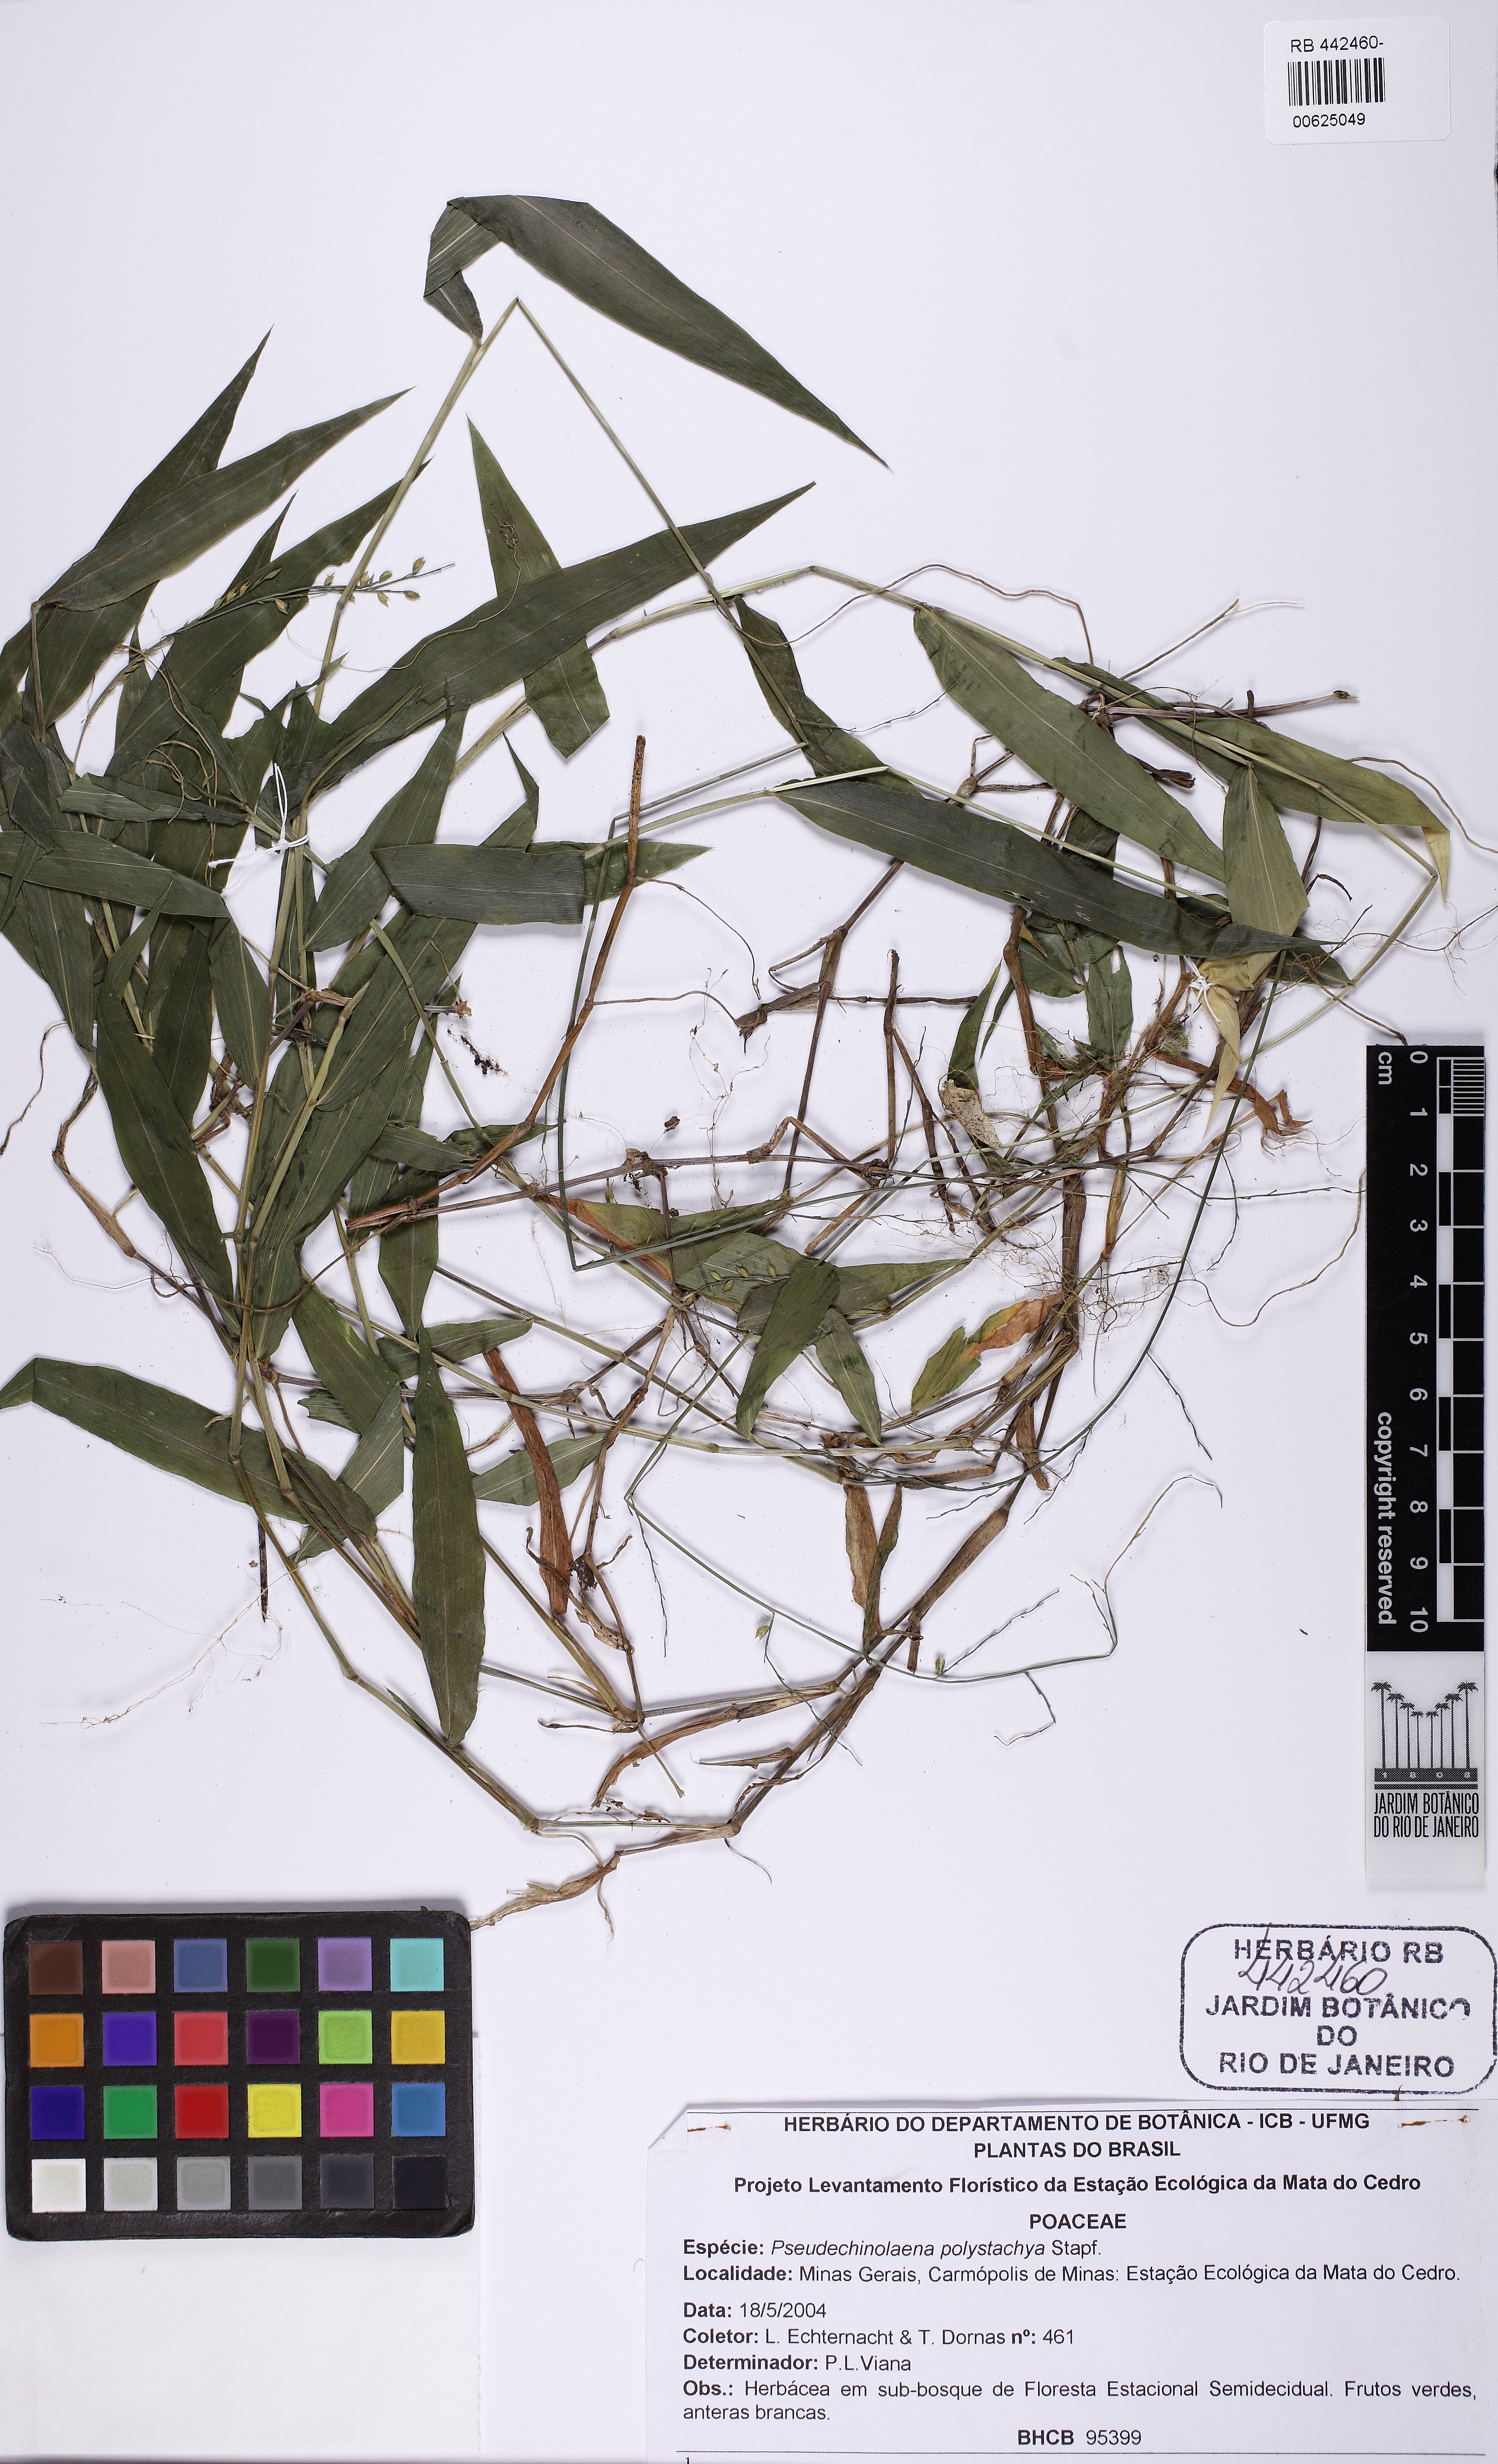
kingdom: Plantae
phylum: Tracheophyta
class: Liliopsida
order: Poales
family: Poaceae
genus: Pseudechinolaena
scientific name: Pseudechinolaena polystachya
